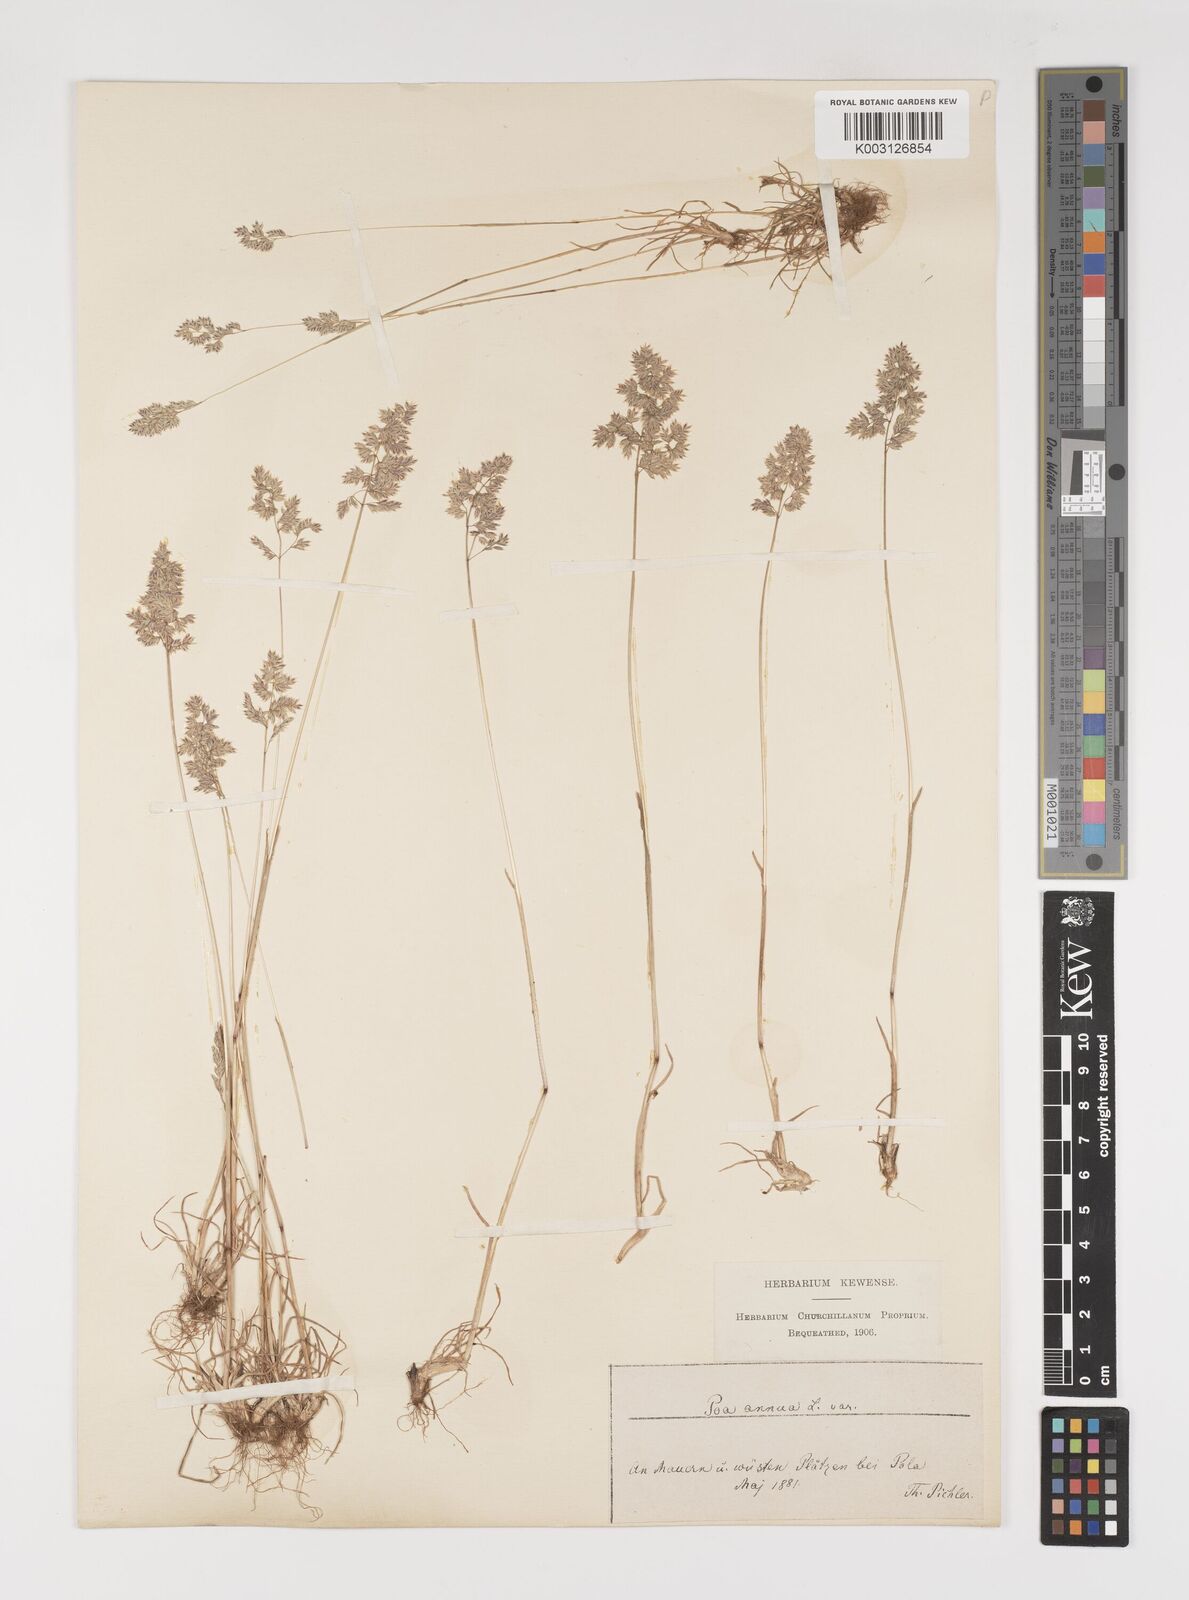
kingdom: Plantae
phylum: Tracheophyta
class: Liliopsida
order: Poales
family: Poaceae
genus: Poa
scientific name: Poa bulbosa
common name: Bulbous bluegrass
